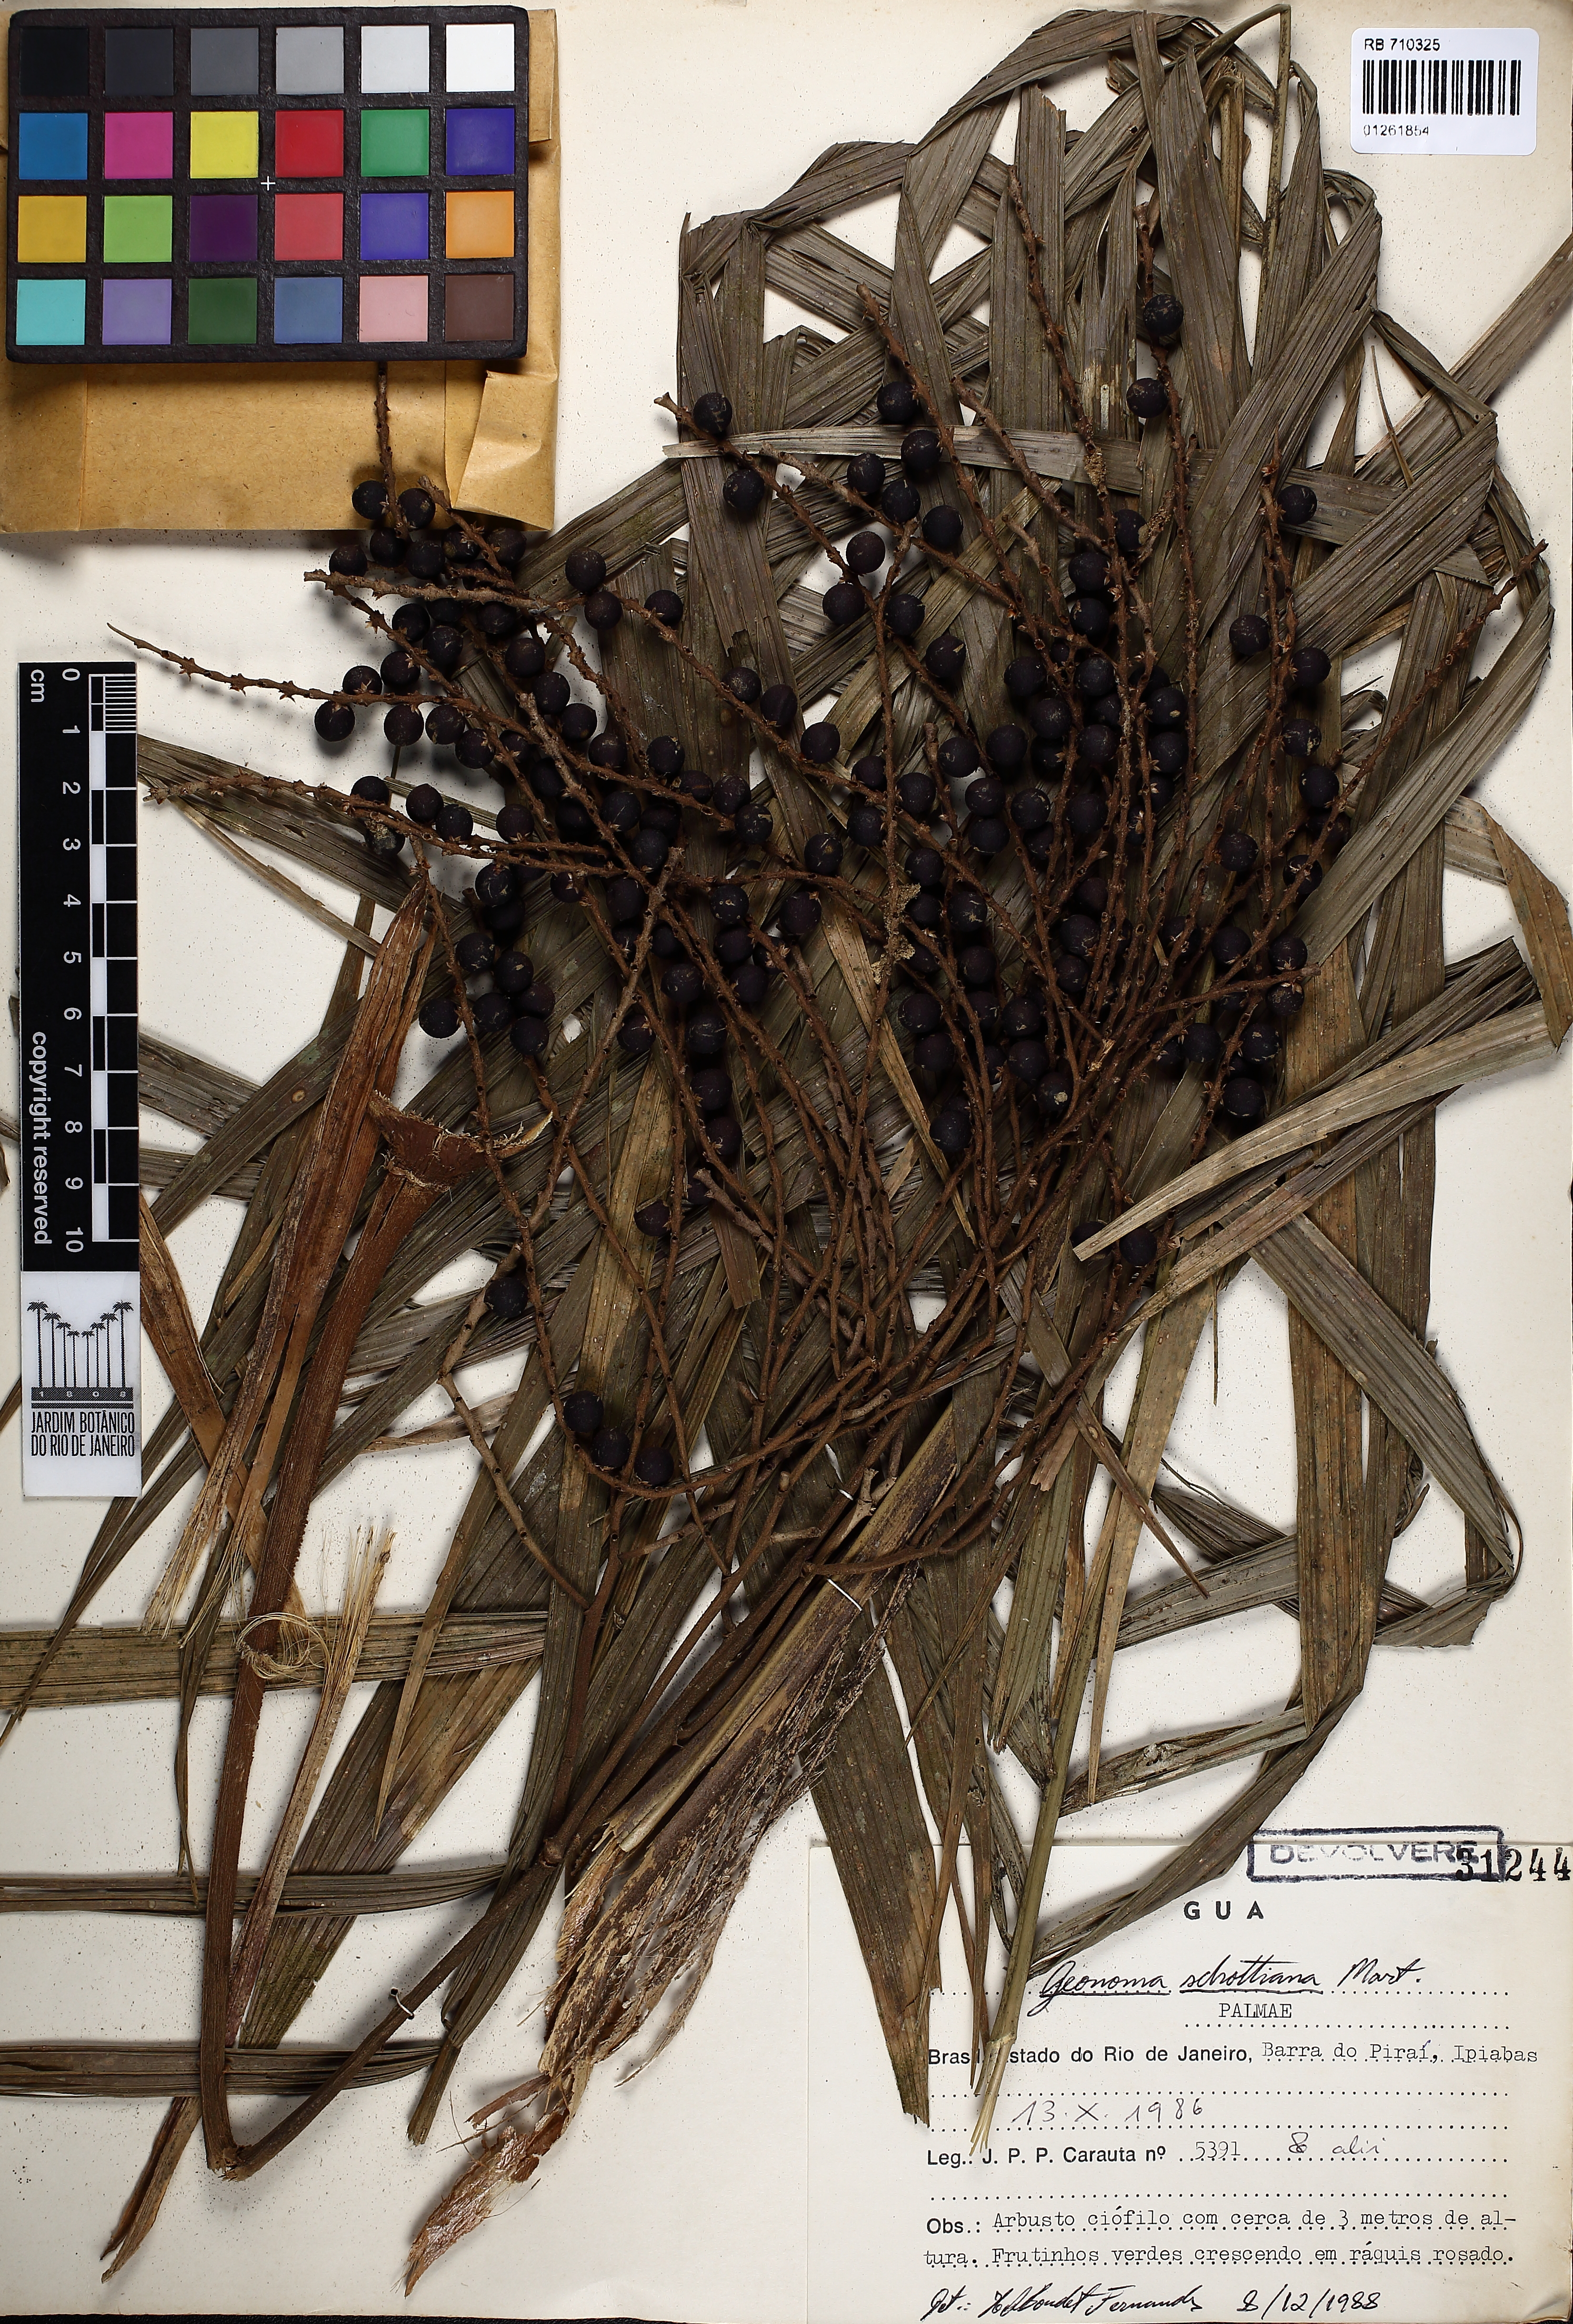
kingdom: Plantae
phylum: Tracheophyta
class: Liliopsida
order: Arecales
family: Arecaceae
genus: Geonoma
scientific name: Geonoma schottiana
